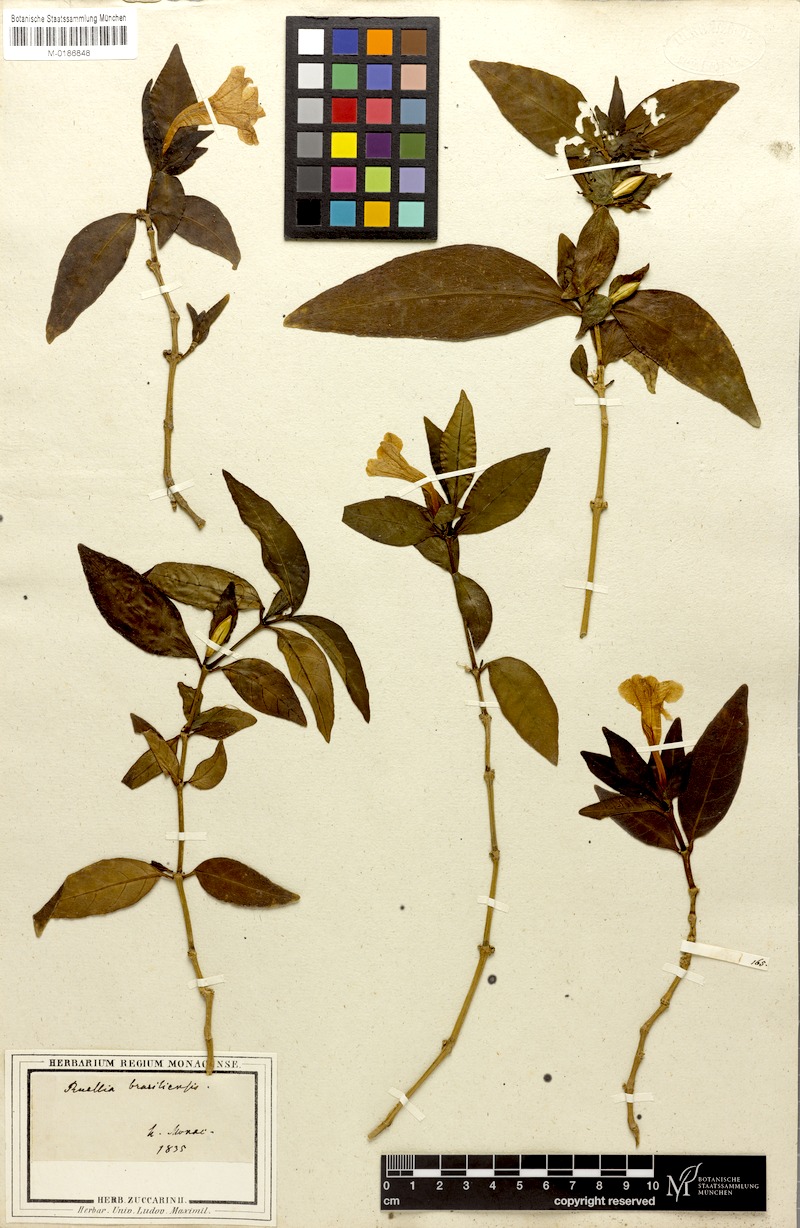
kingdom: Plantae
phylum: Tracheophyta
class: Magnoliopsida
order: Lamiales
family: Acanthaceae
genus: Ruellia
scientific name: Ruellia solitaria
